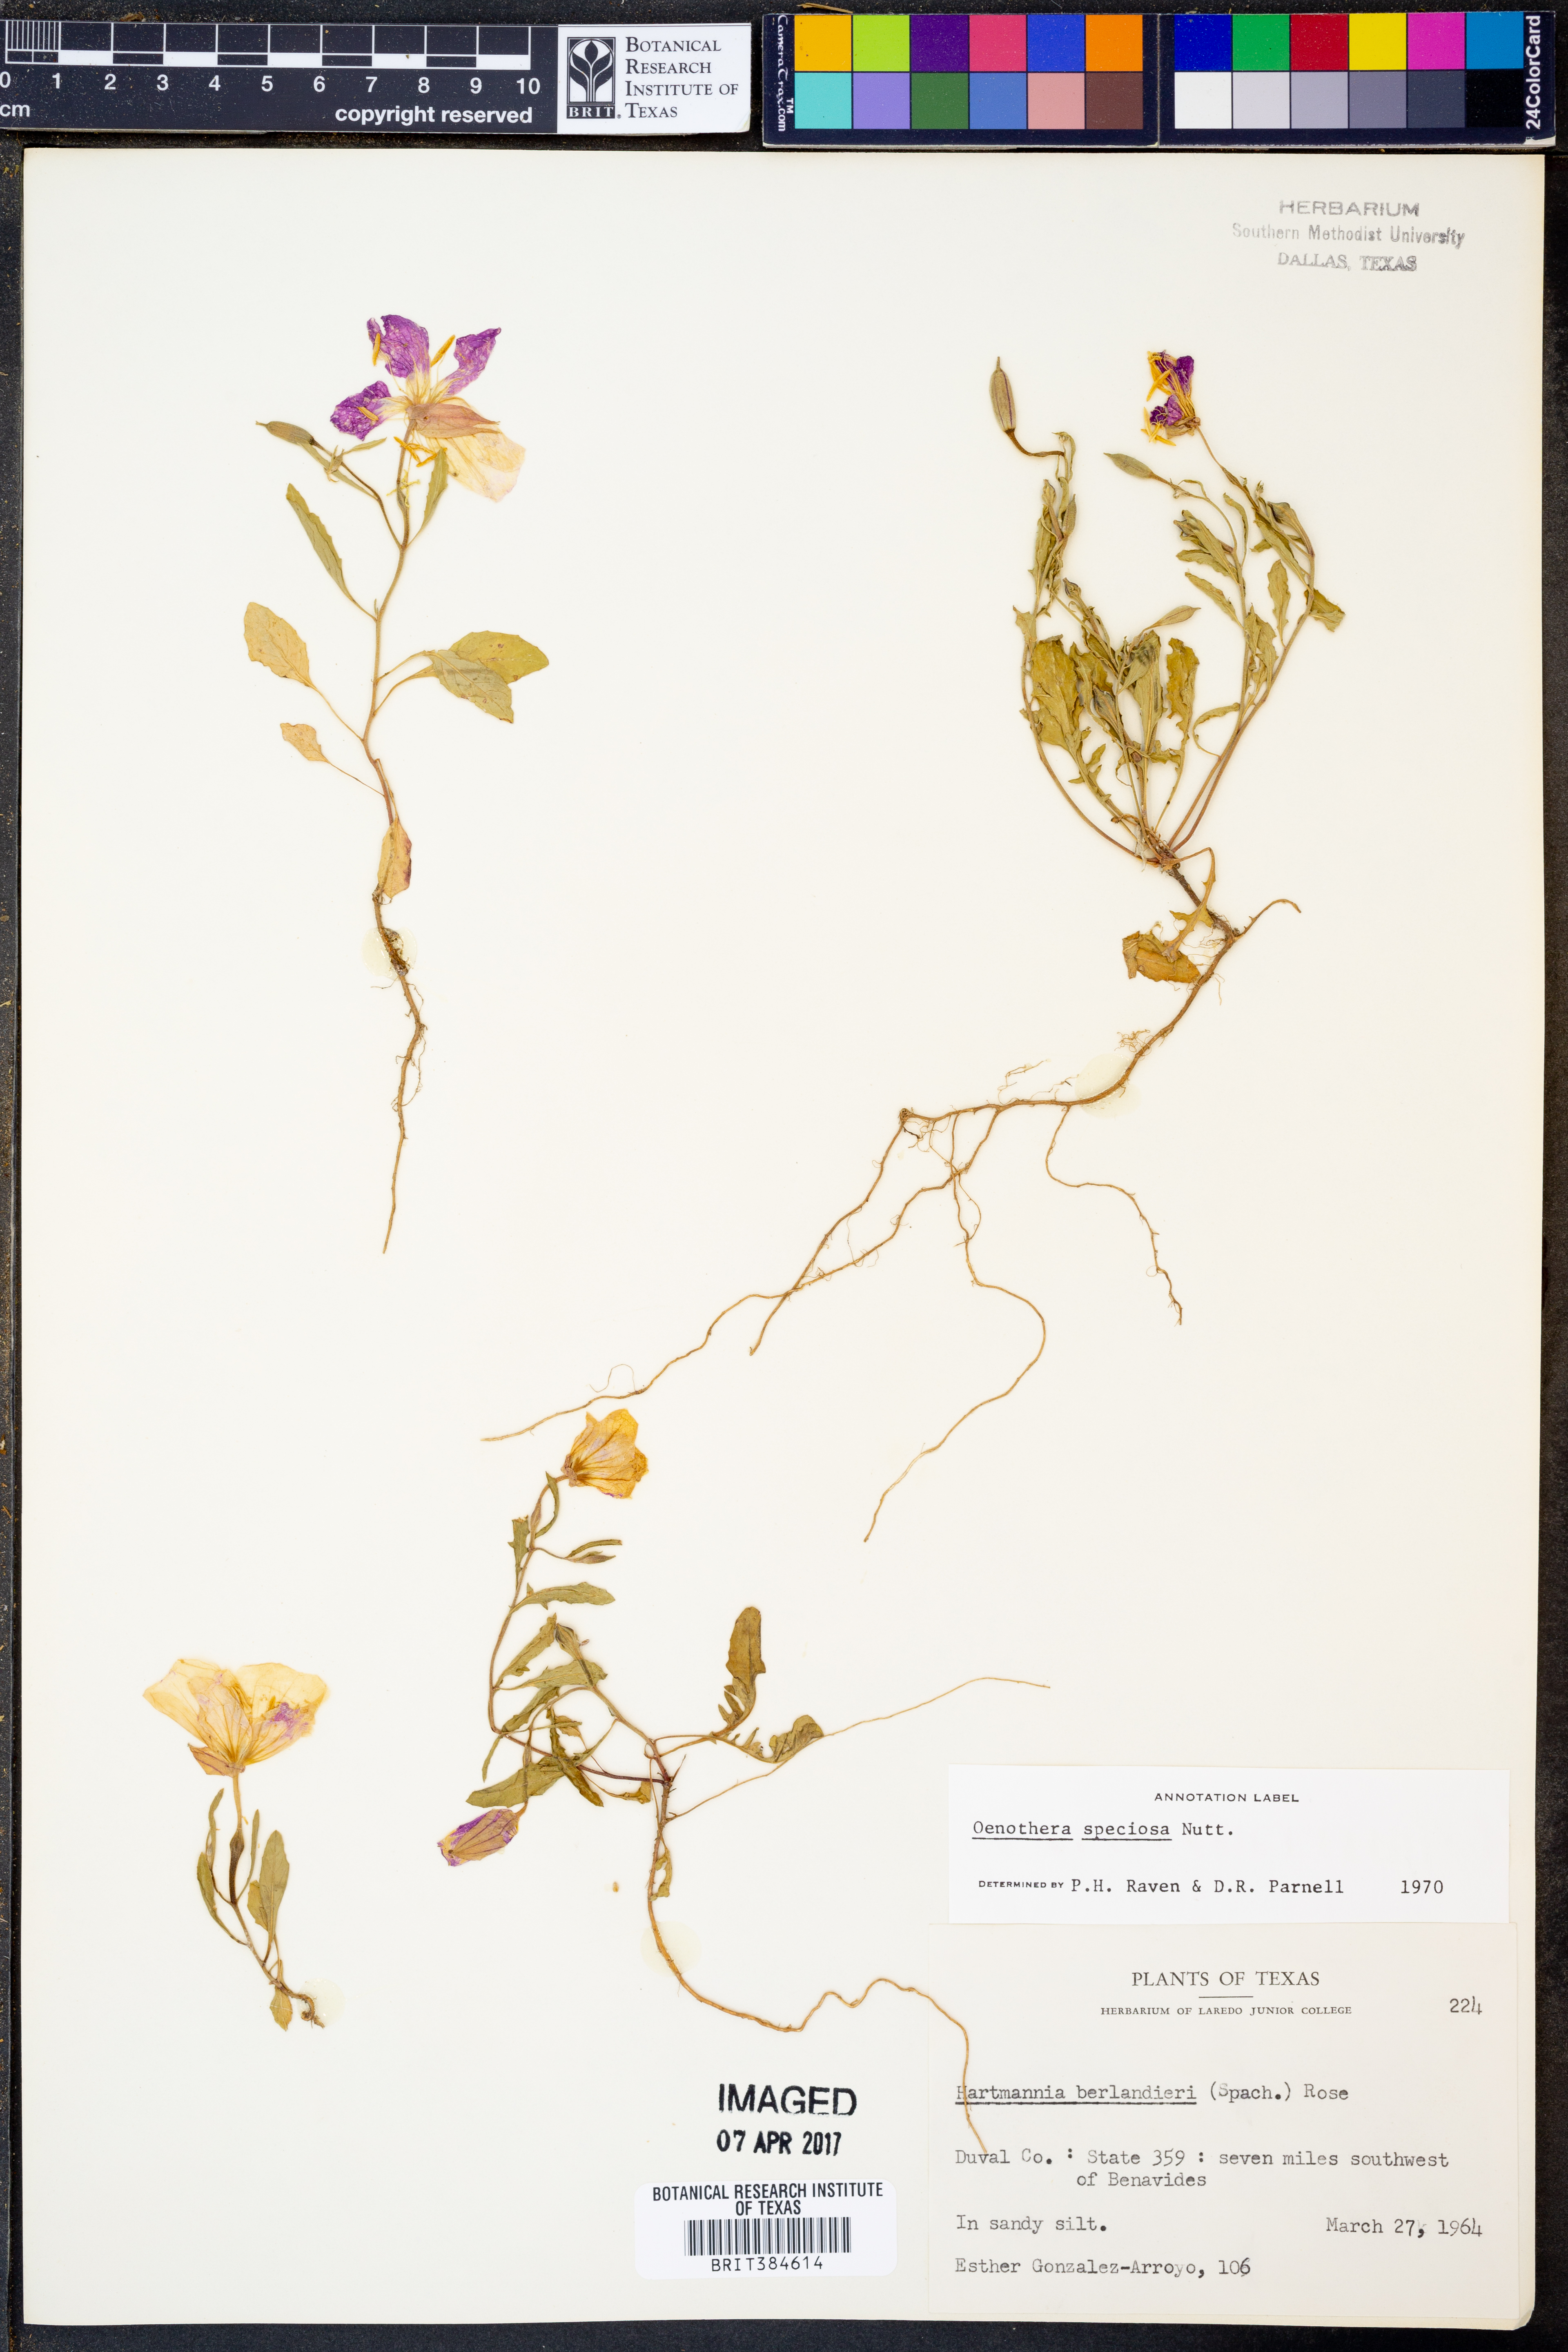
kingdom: Plantae
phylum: Tracheophyta
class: Magnoliopsida
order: Myrtales
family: Onagraceae
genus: Oenothera
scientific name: Oenothera speciosa
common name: White evening-primrose
